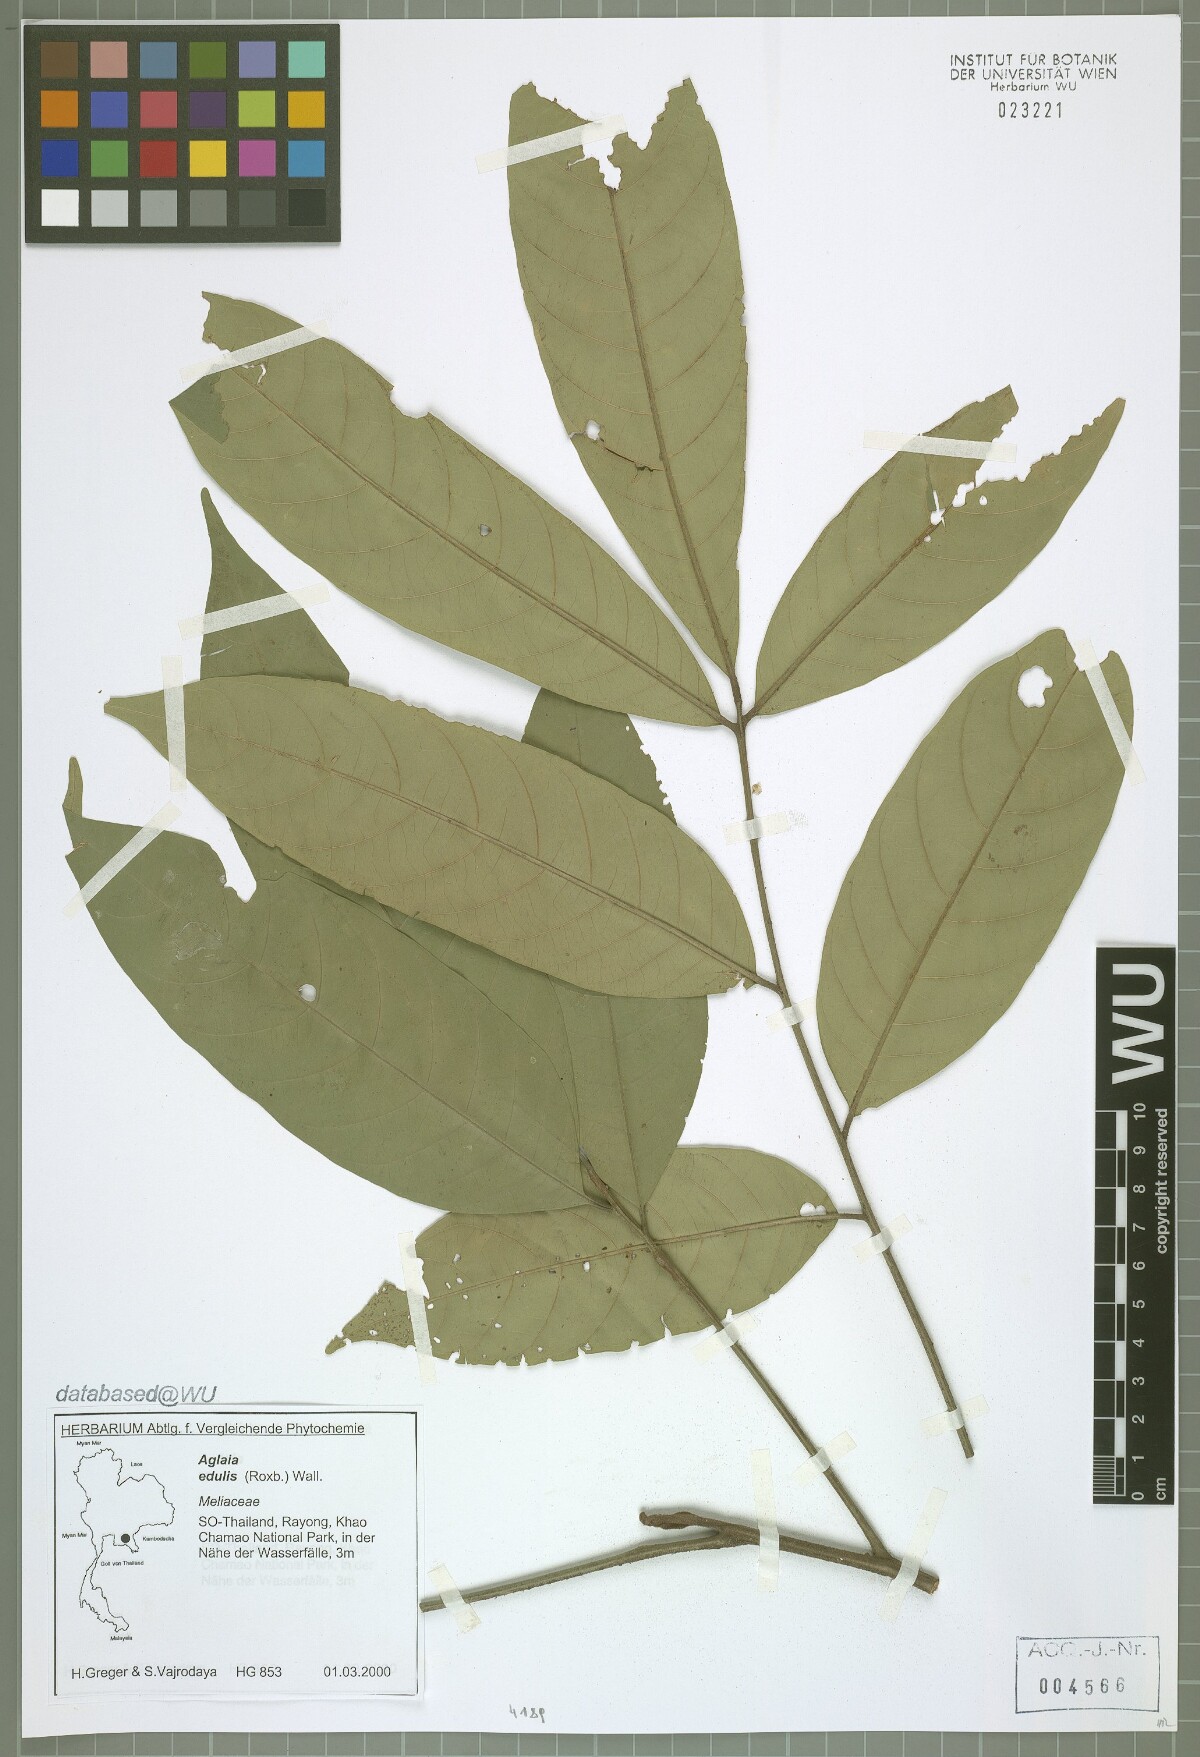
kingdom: Plantae
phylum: Tracheophyta
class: Magnoliopsida
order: Sapindales
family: Meliaceae
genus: Aglaia
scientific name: Aglaia edulis
